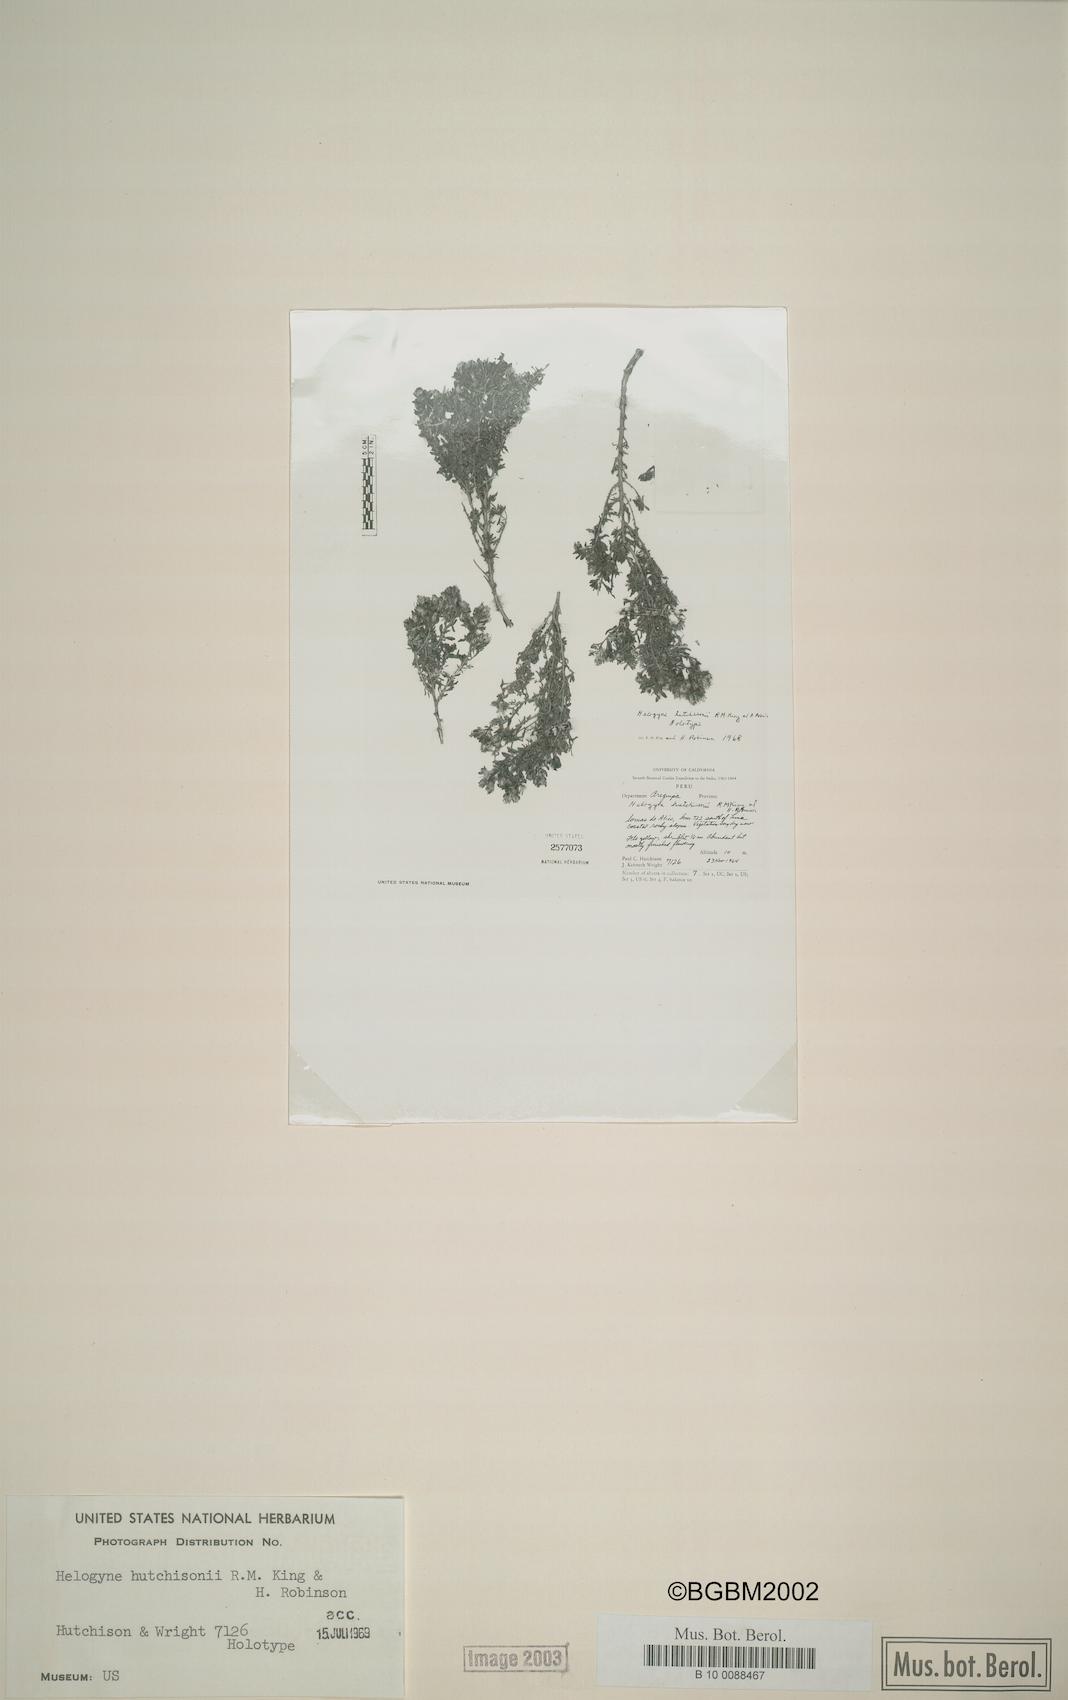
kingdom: Plantae
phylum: Tracheophyta
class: Magnoliopsida
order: Asterales
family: Asteraceae
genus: Helogyne
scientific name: Helogyne hutchisonii
